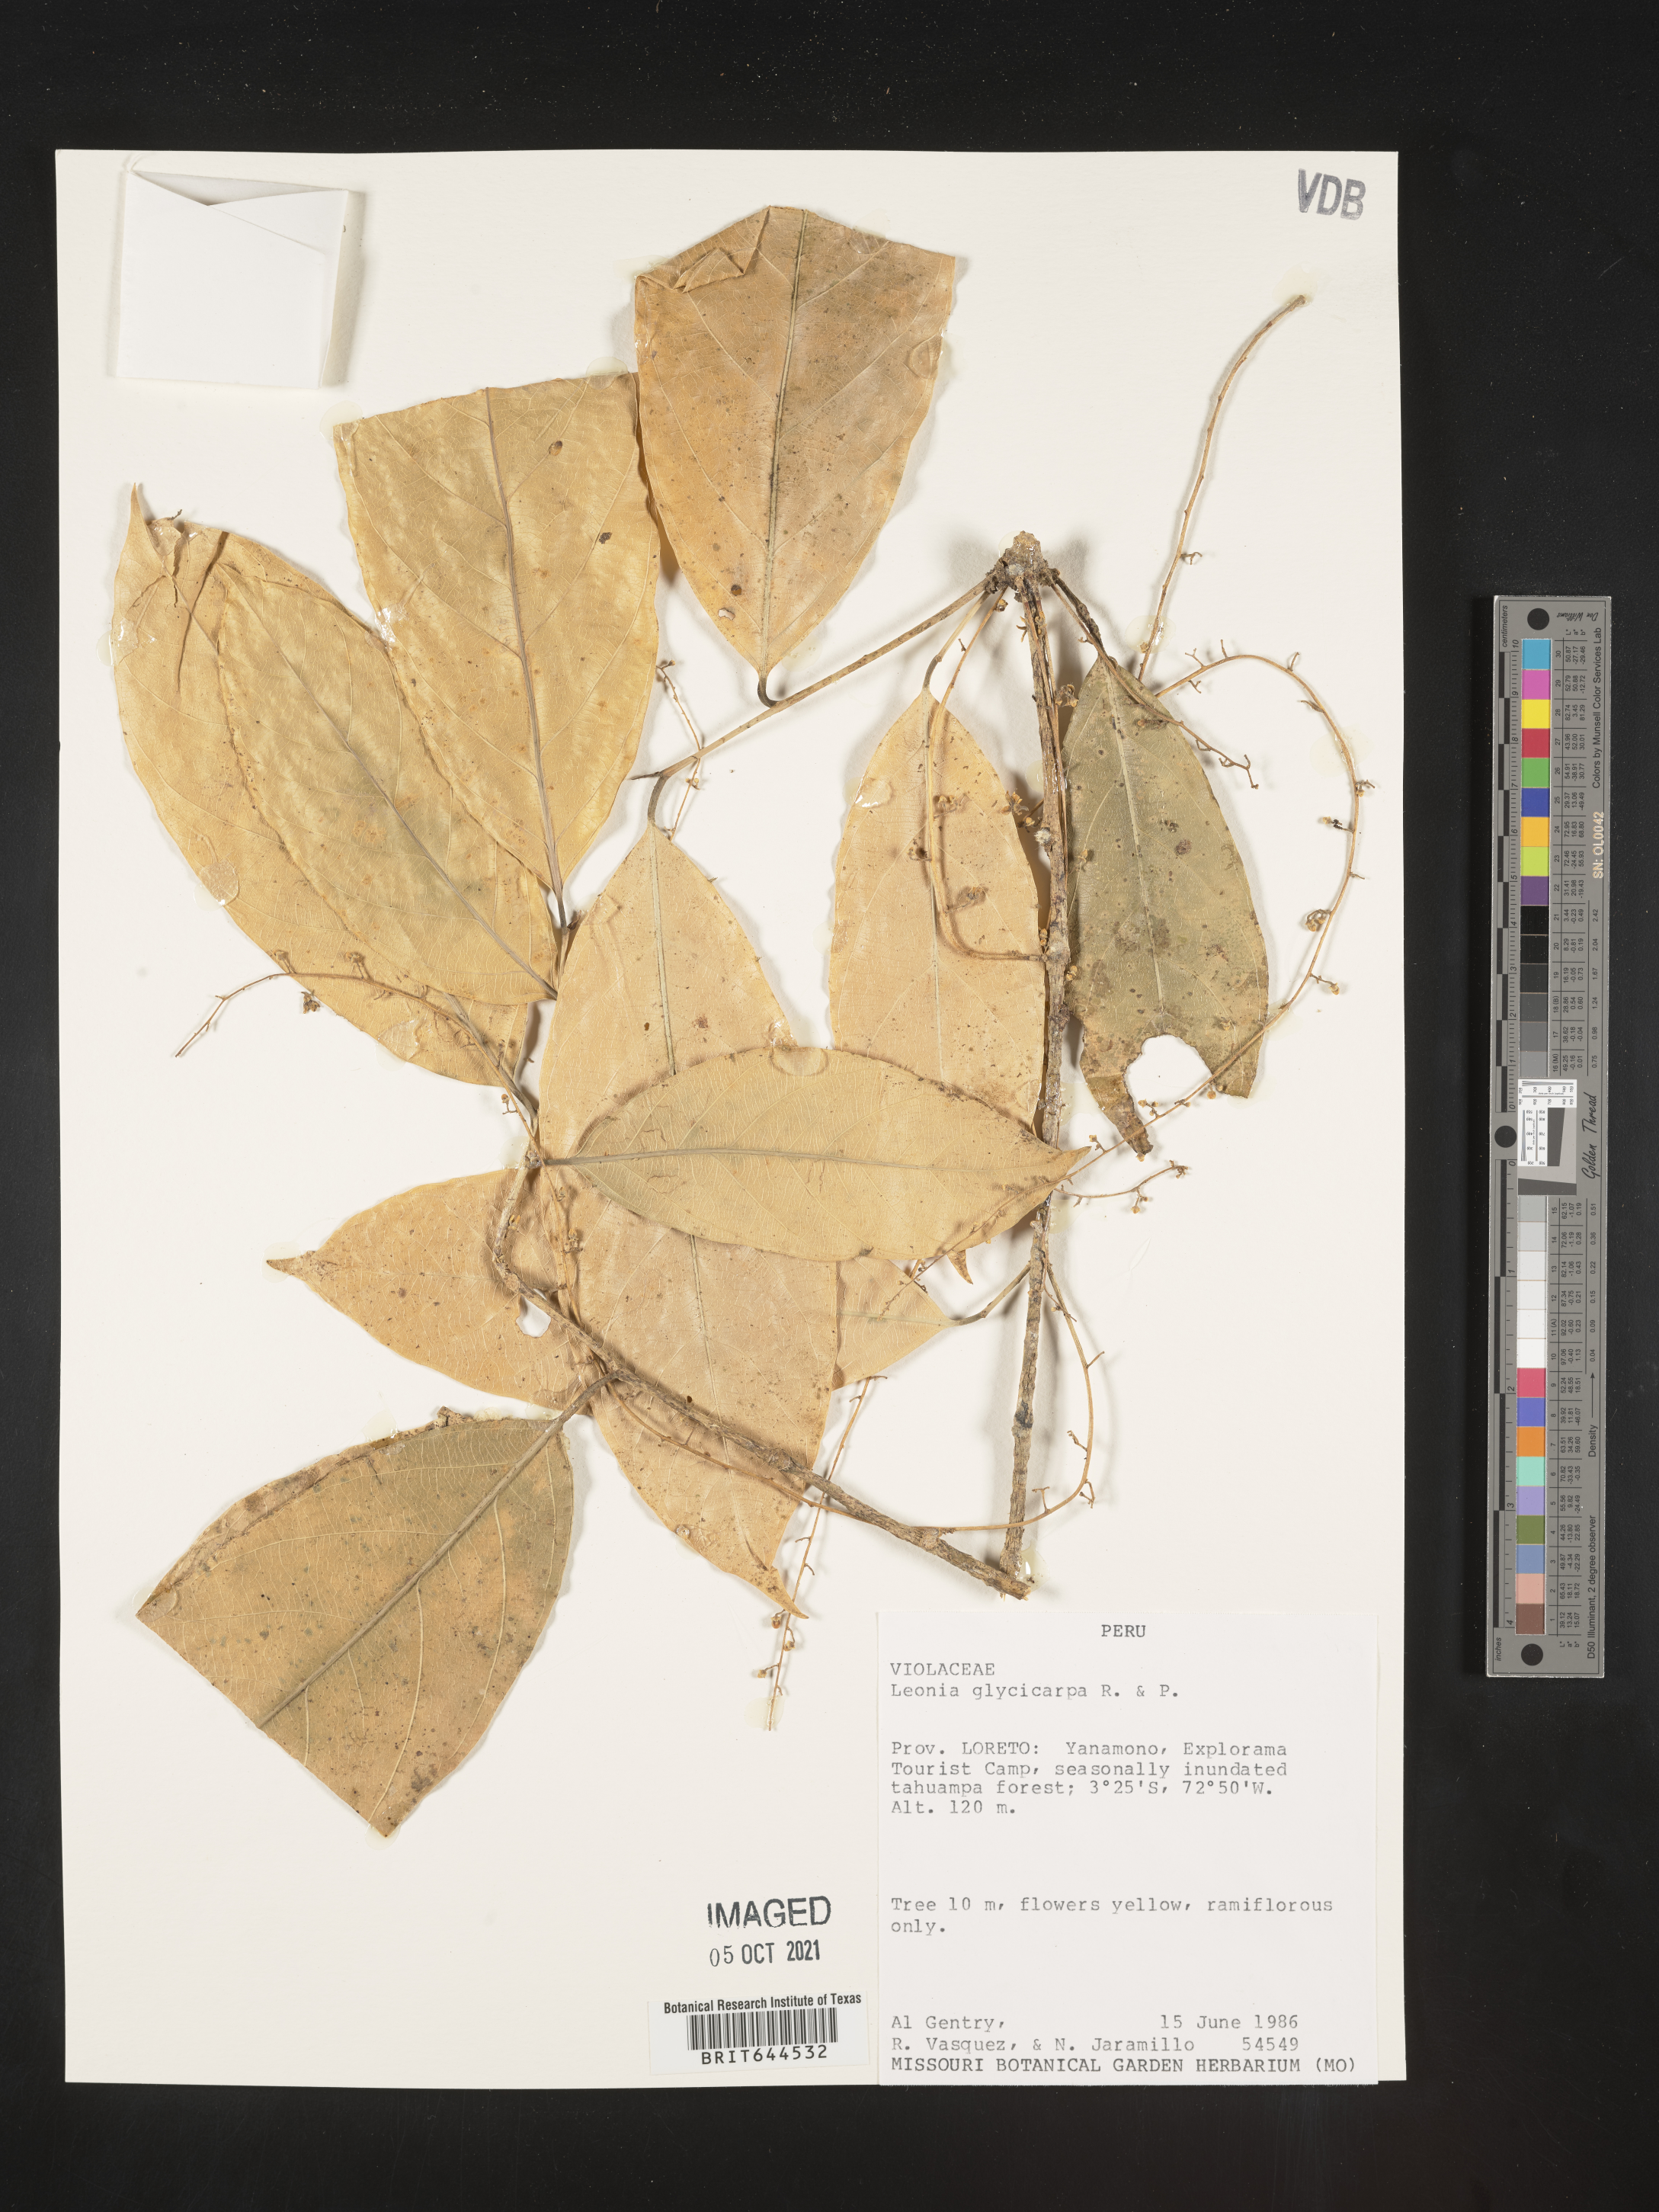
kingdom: Plantae
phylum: Tracheophyta
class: Magnoliopsida
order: Malpighiales
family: Violaceae
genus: Leonia
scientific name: Leonia
